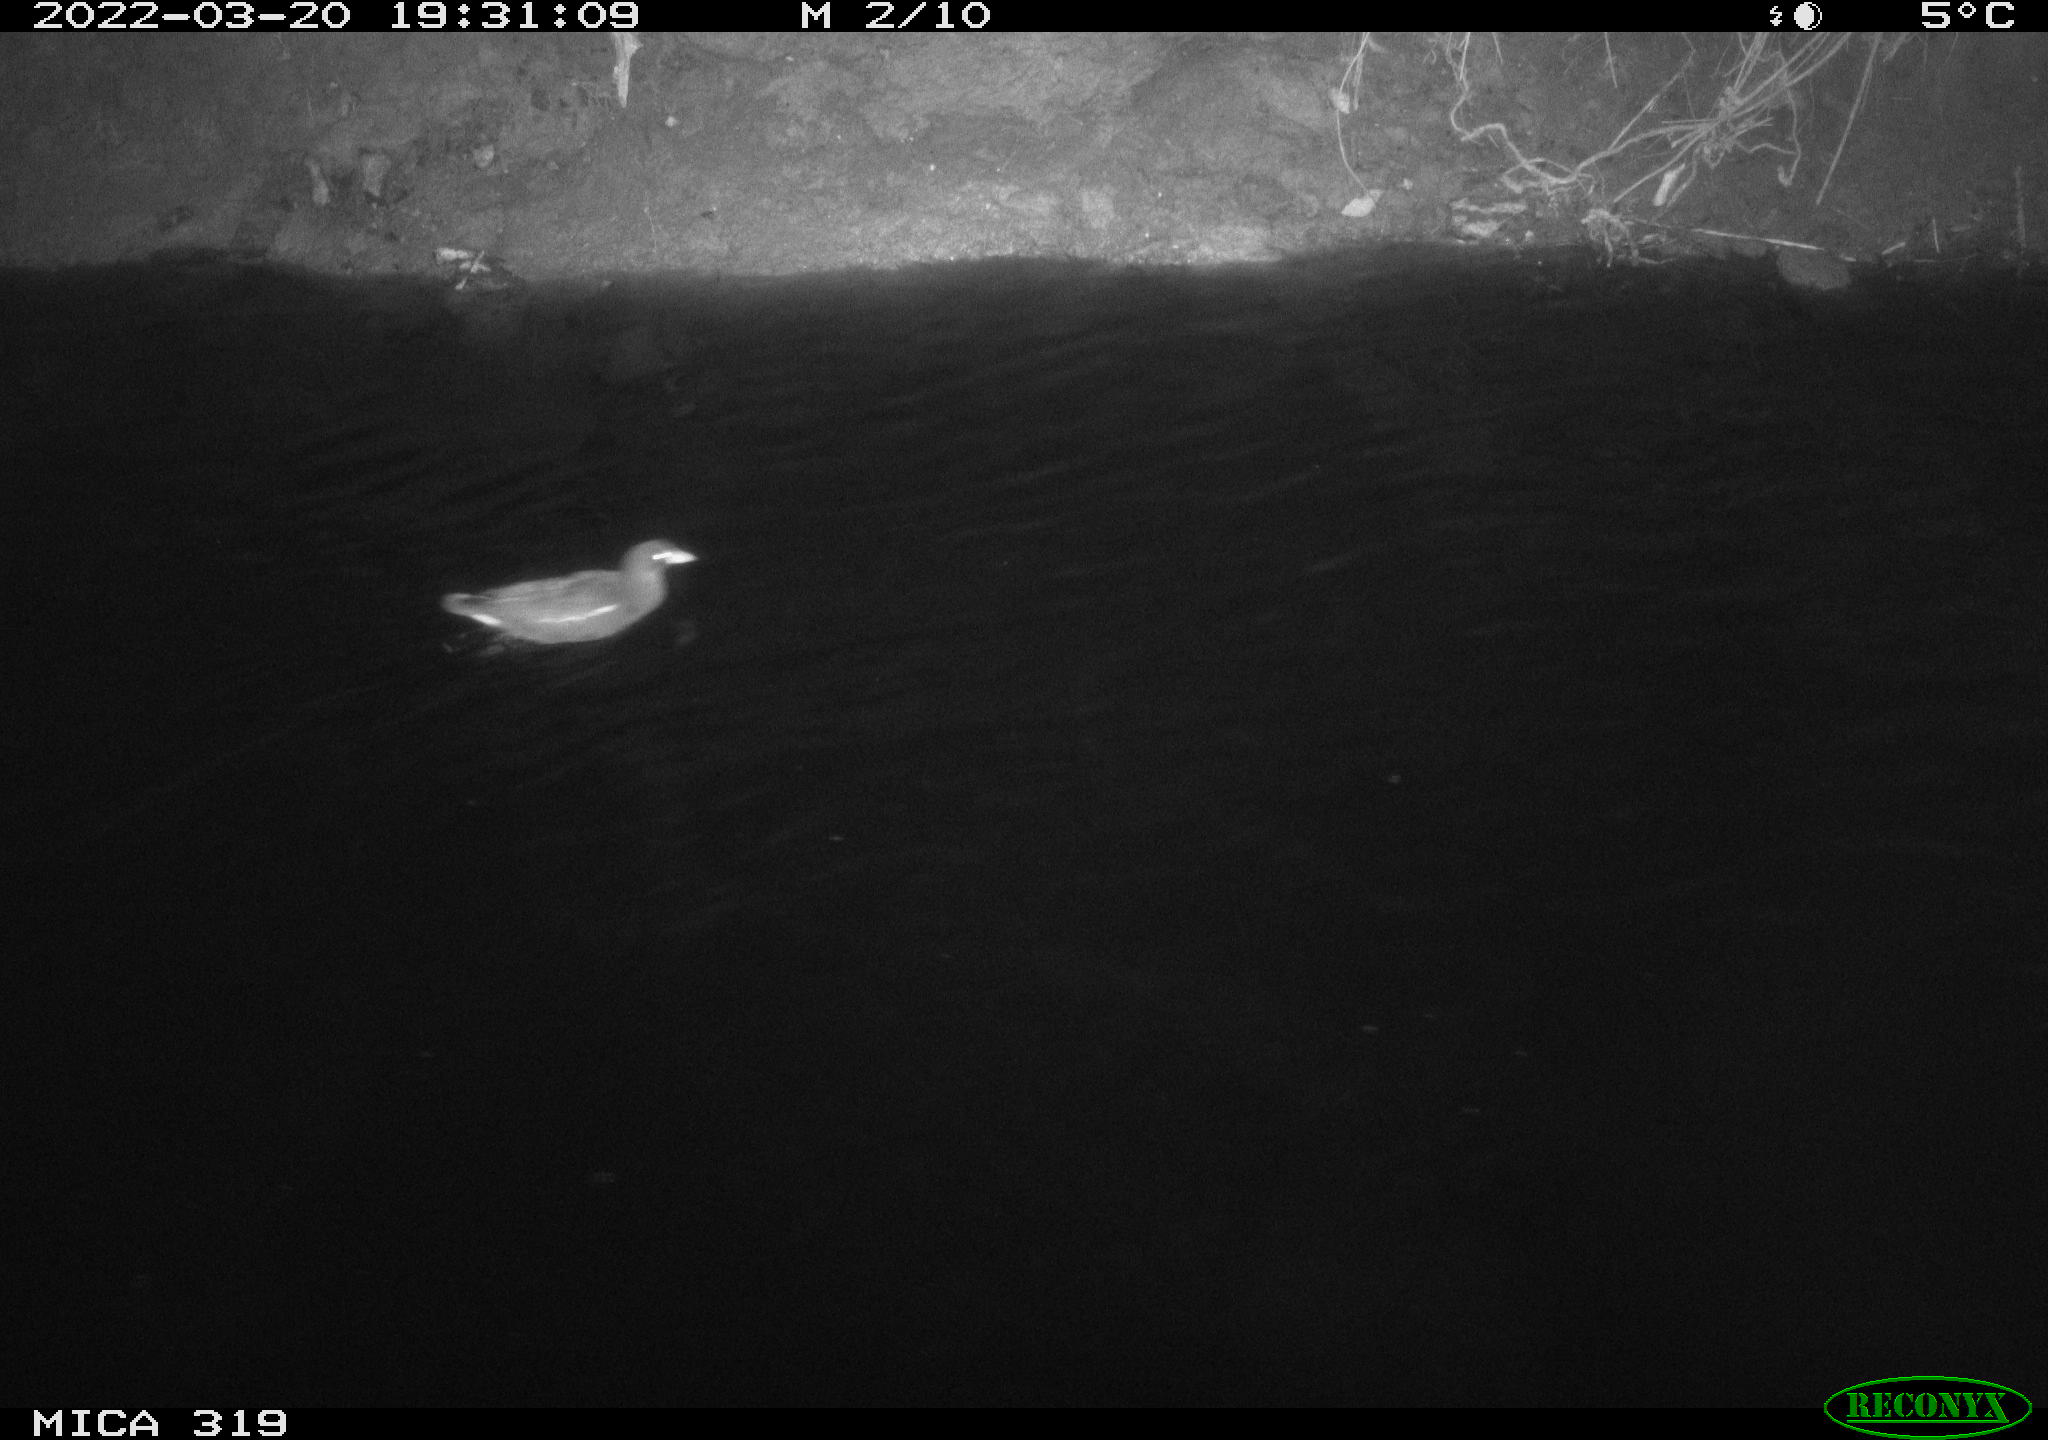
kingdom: Animalia
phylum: Chordata
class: Aves
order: Gruiformes
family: Rallidae
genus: Gallinula
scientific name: Gallinula chloropus
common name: Common moorhen
